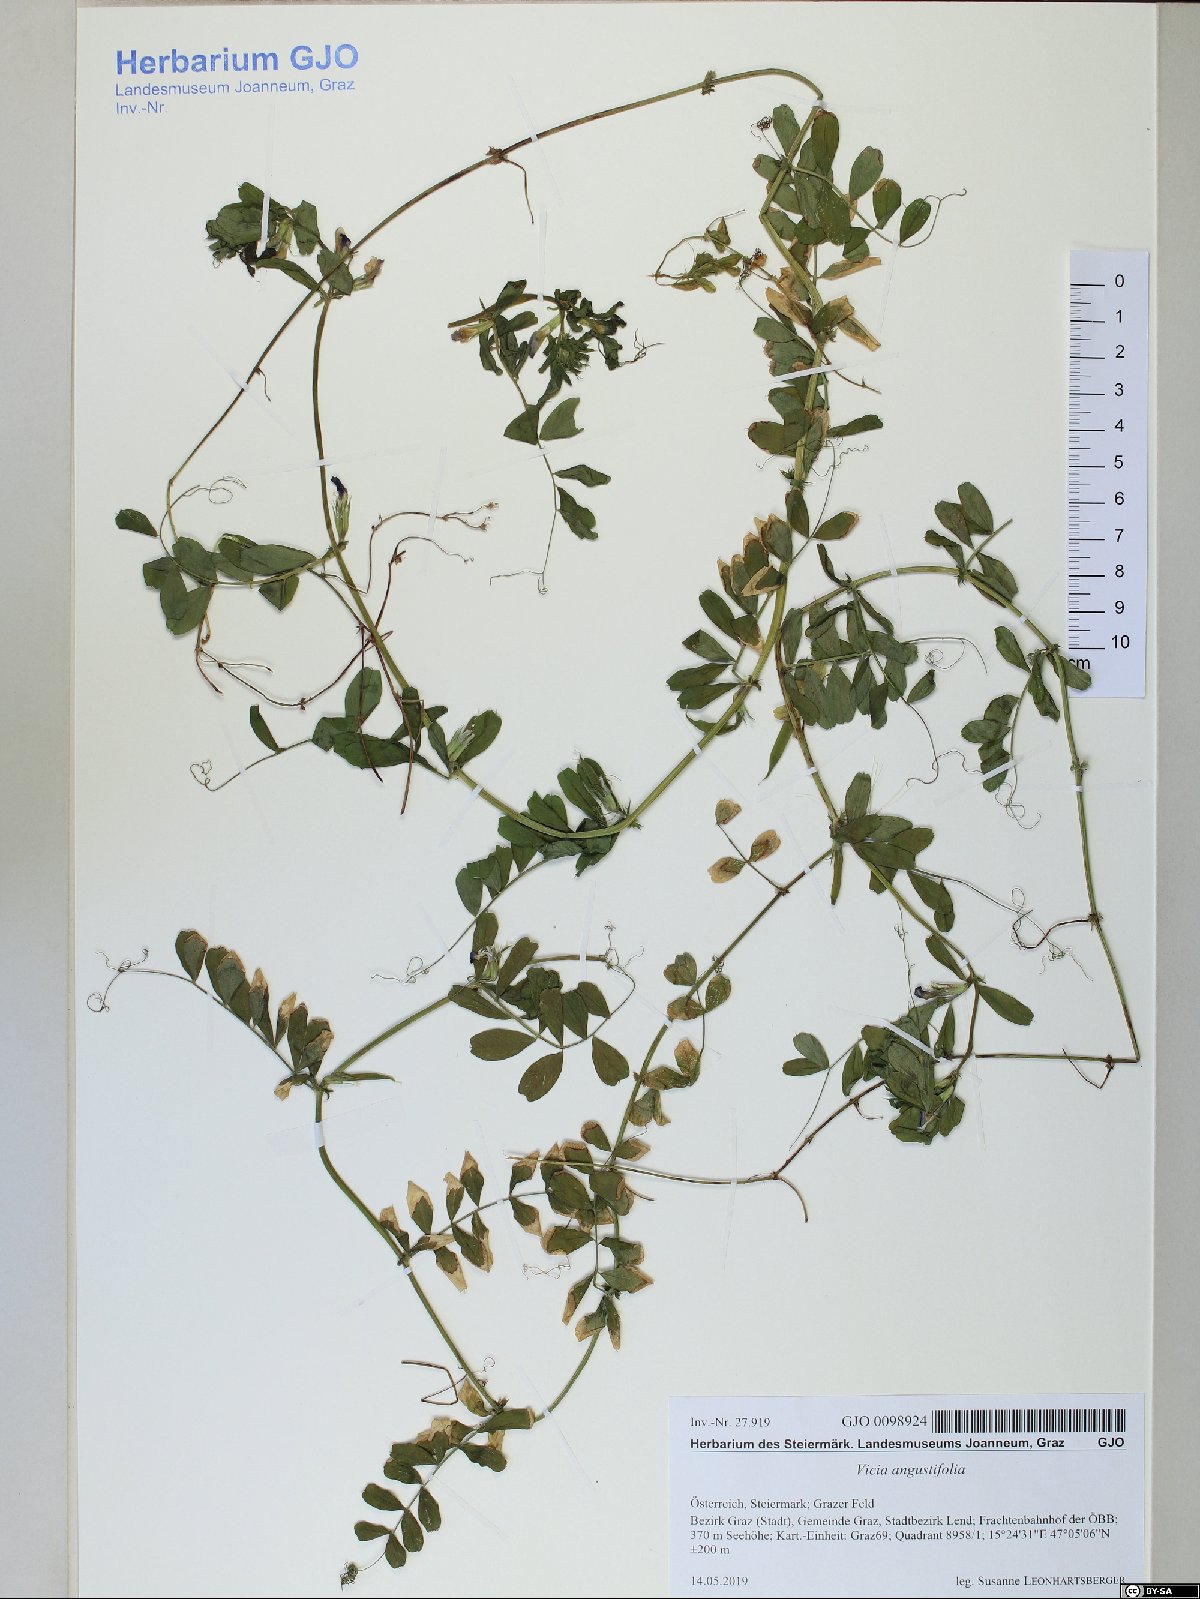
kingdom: Plantae
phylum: Tracheophyta
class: Magnoliopsida
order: Fabales
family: Fabaceae
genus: Vicia
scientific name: Vicia sativa
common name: Garden vetch
